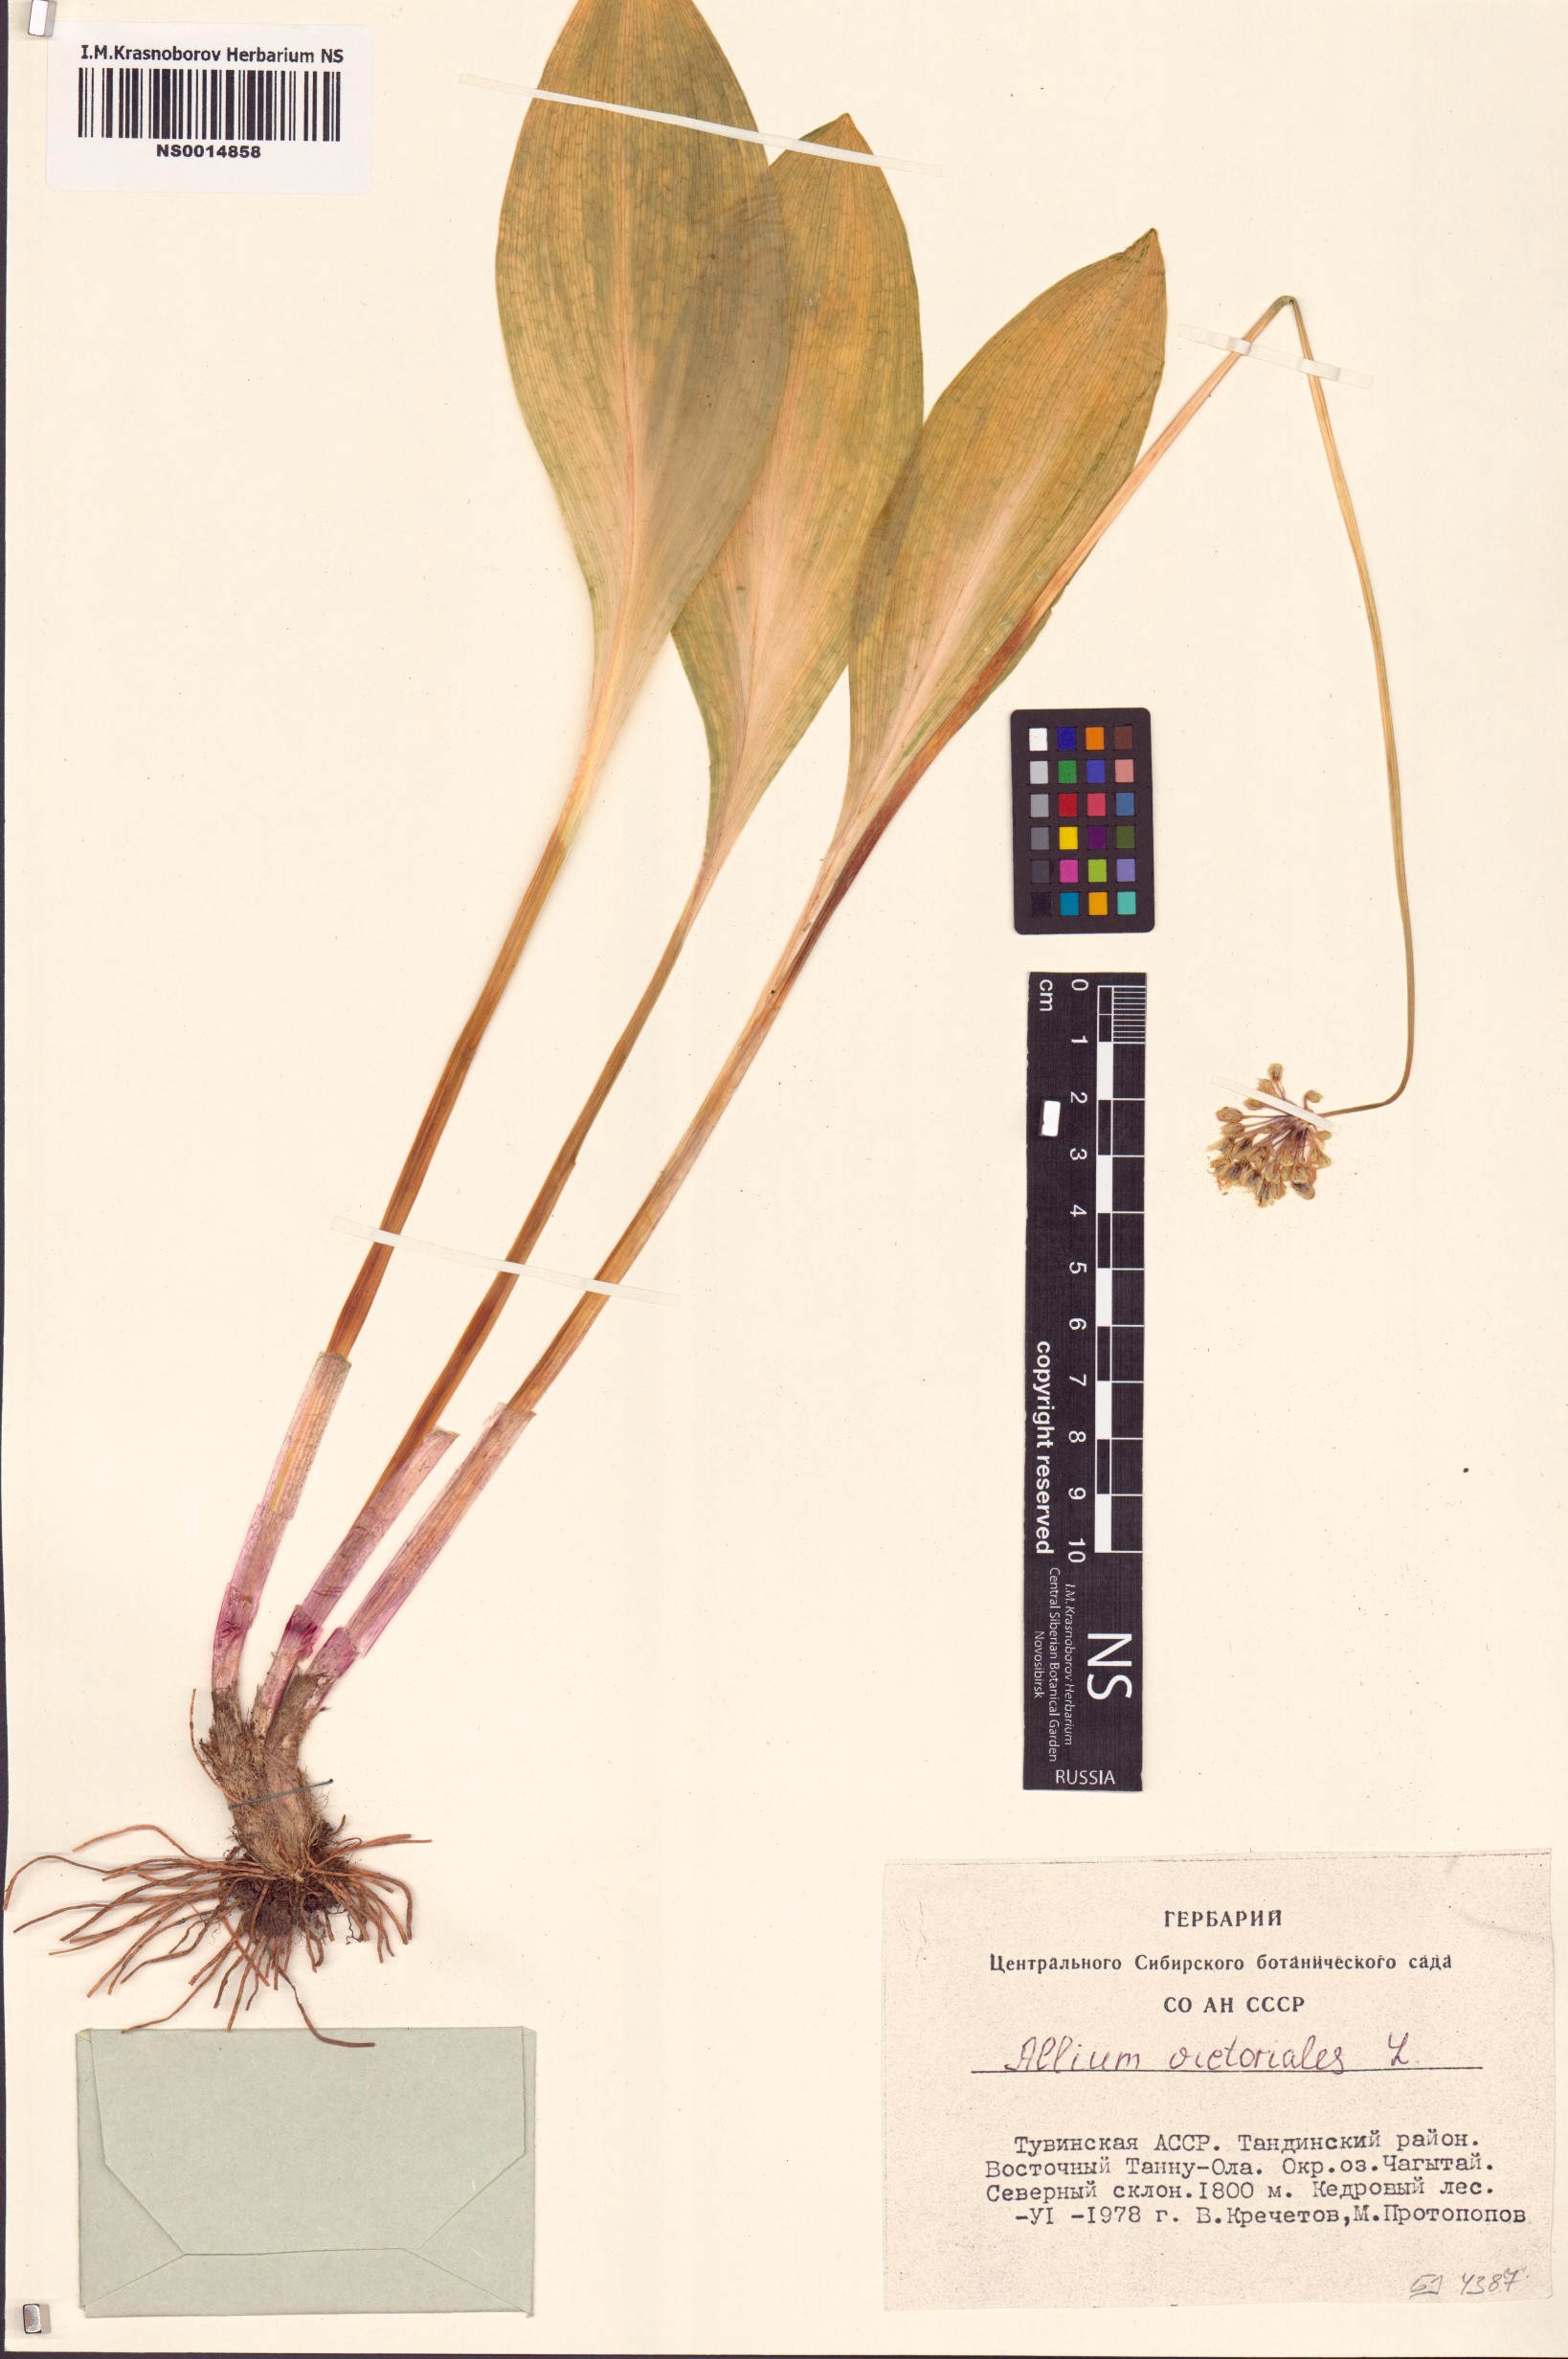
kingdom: Plantae
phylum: Tracheophyta
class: Liliopsida
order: Asparagales
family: Amaryllidaceae
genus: Allium
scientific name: Allium victorialis
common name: Alpine leek
